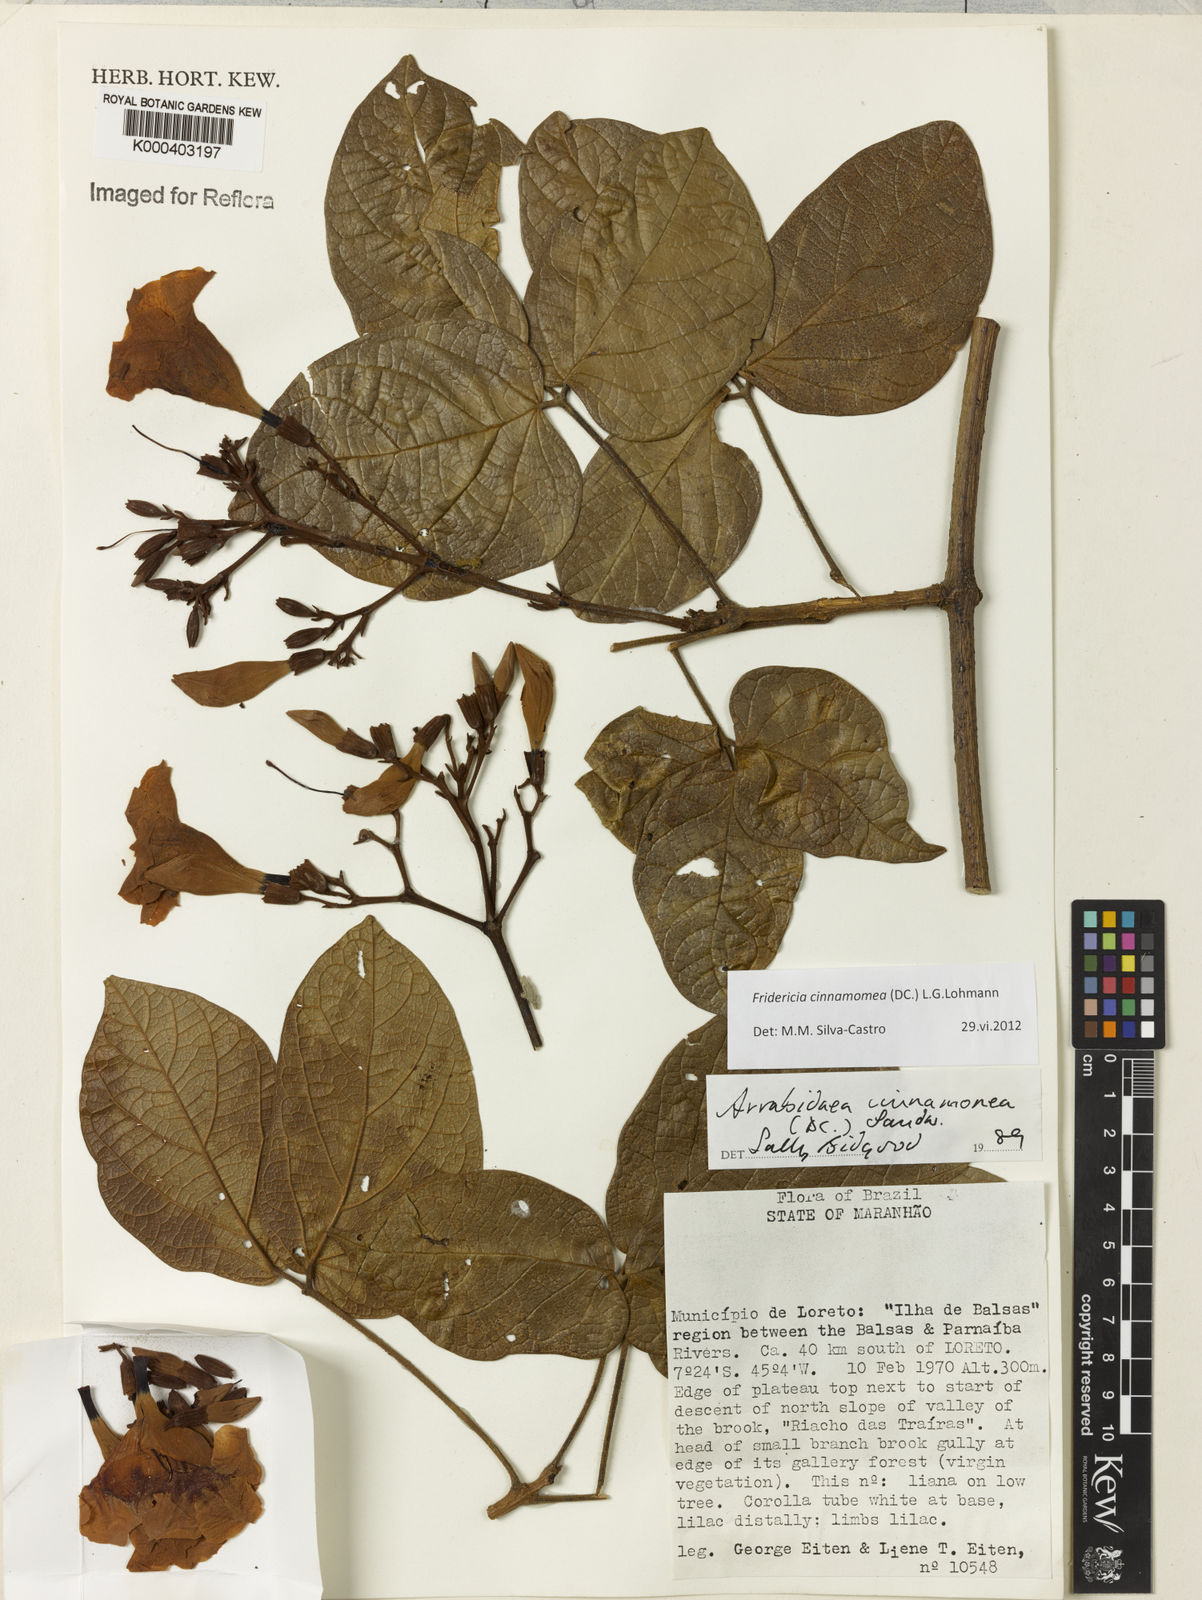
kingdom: Plantae
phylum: Tracheophyta
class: Magnoliopsida
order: Lamiales
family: Bignoniaceae
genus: Fridericia
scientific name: Fridericia cinnamomea
